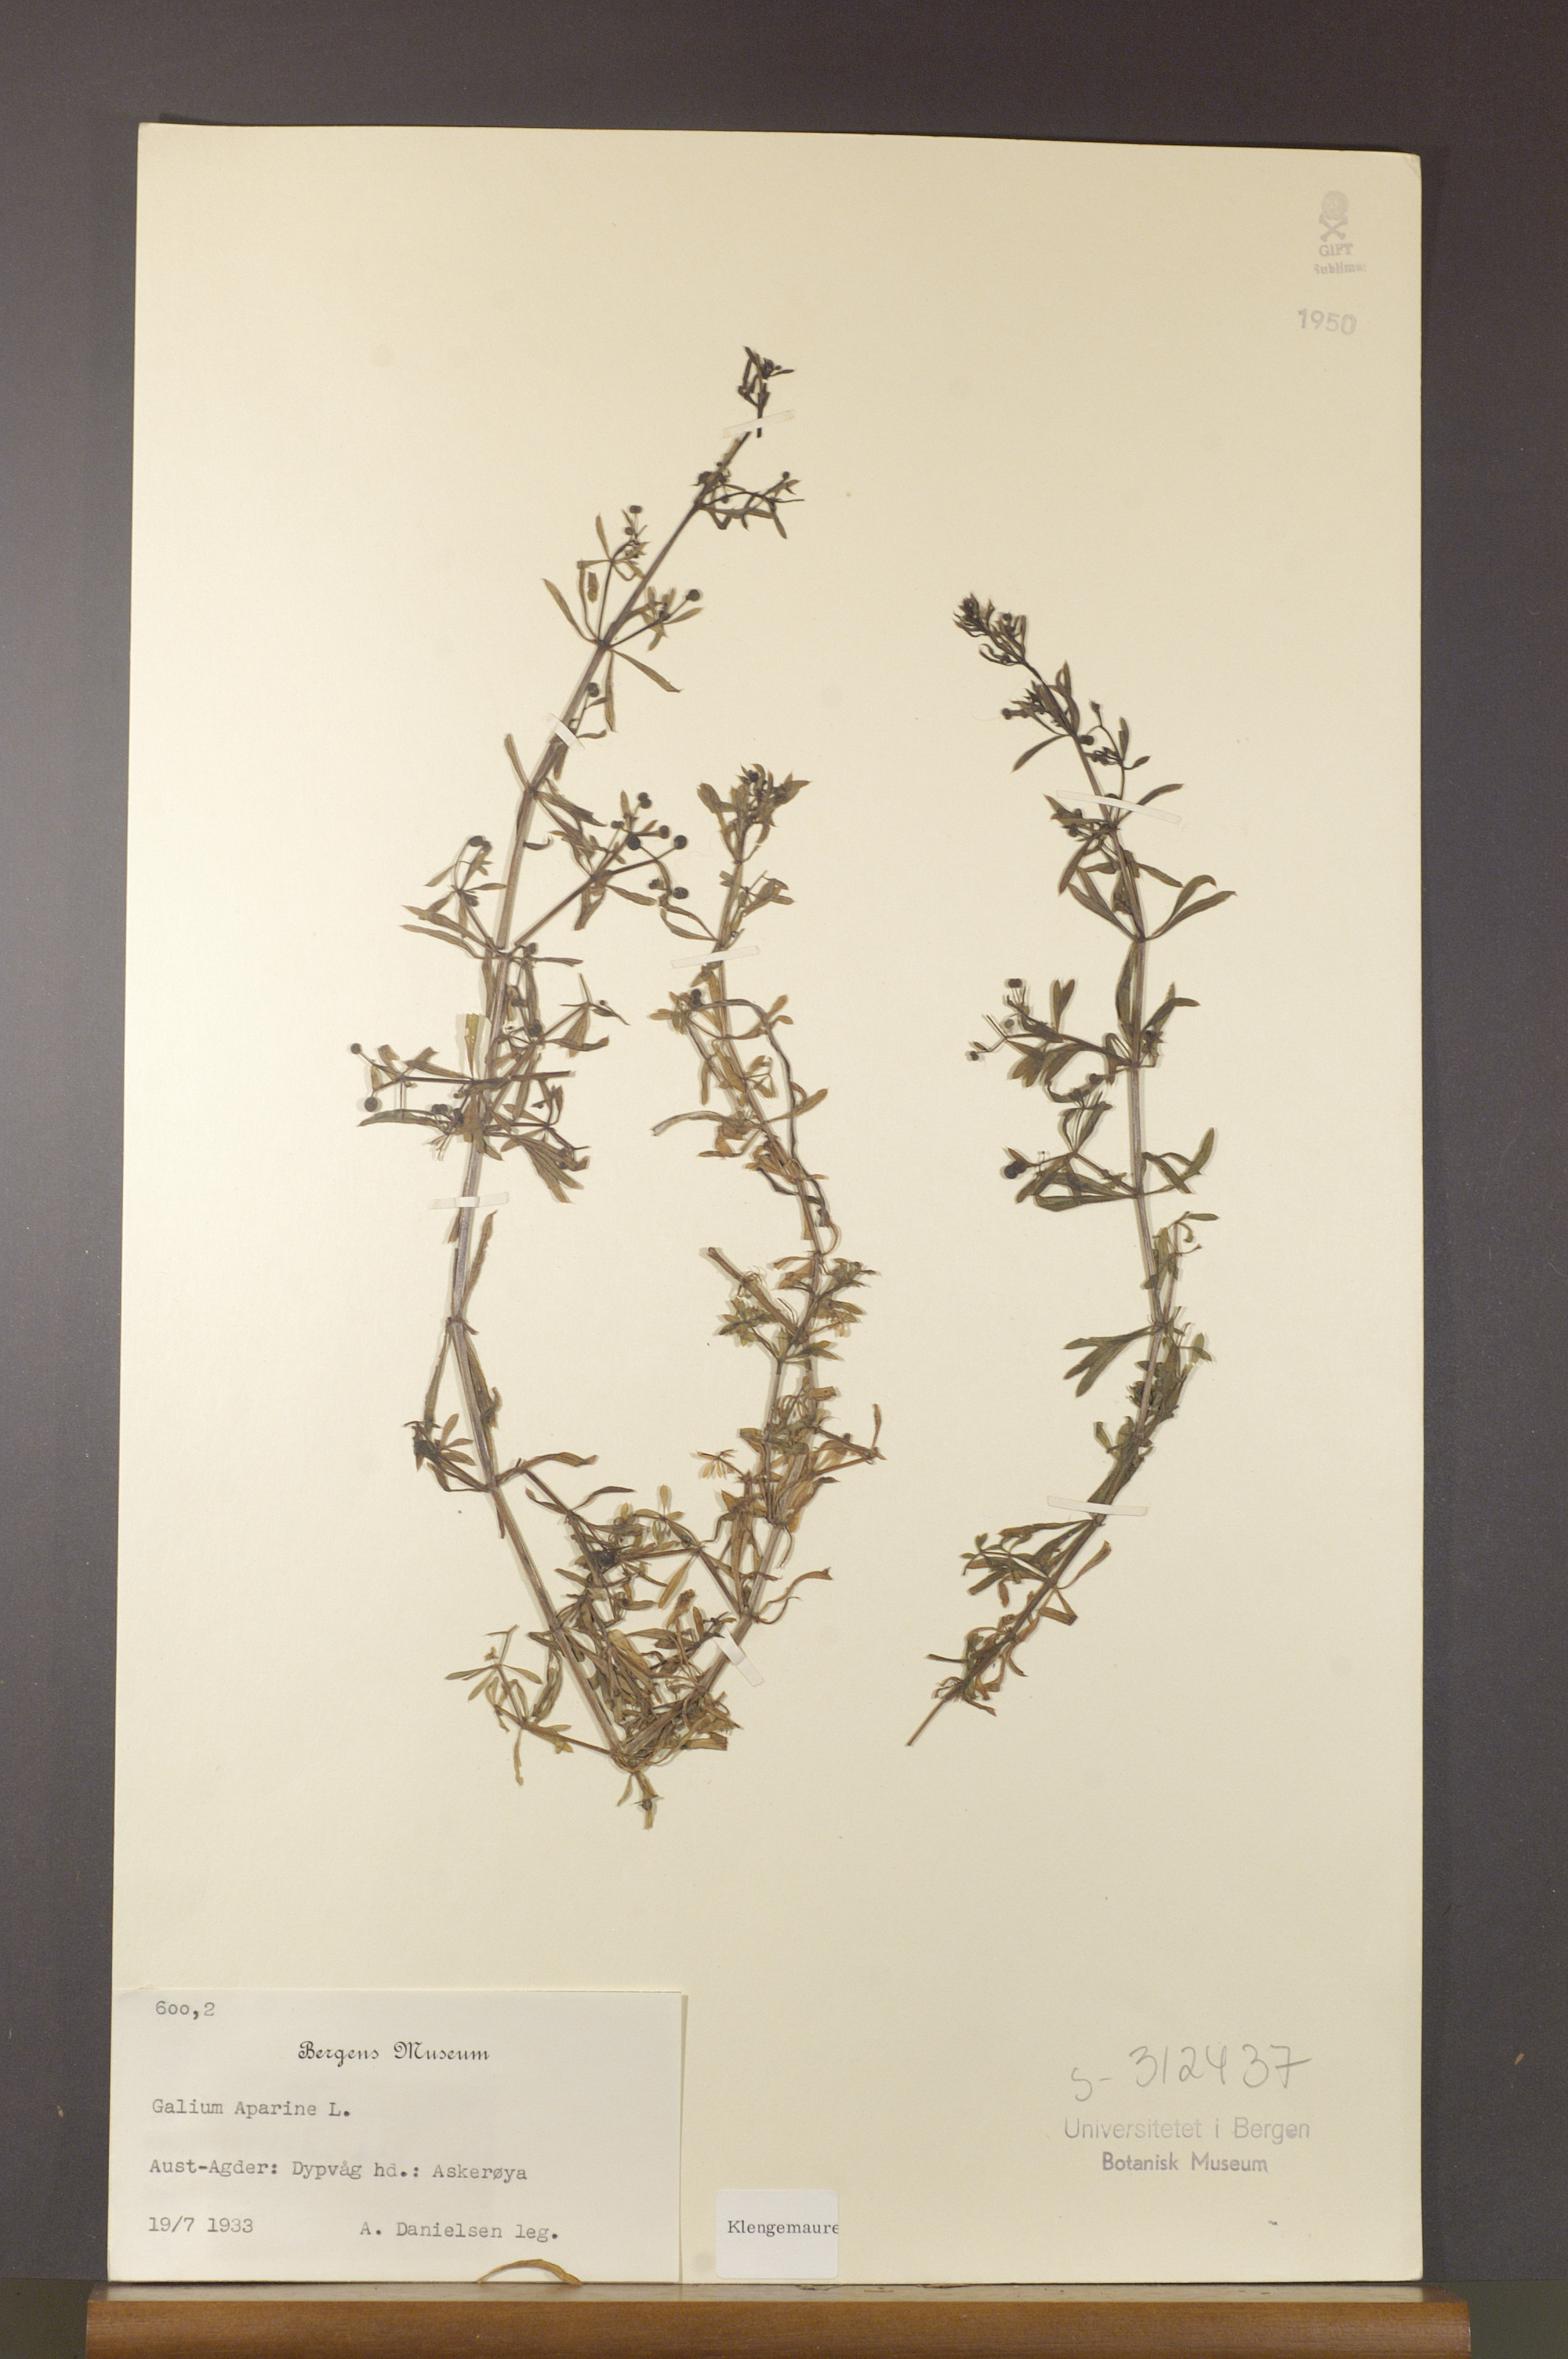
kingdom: Plantae
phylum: Tracheophyta
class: Magnoliopsida
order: Gentianales
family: Rubiaceae
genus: Galium
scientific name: Galium aparine
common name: Cleavers
